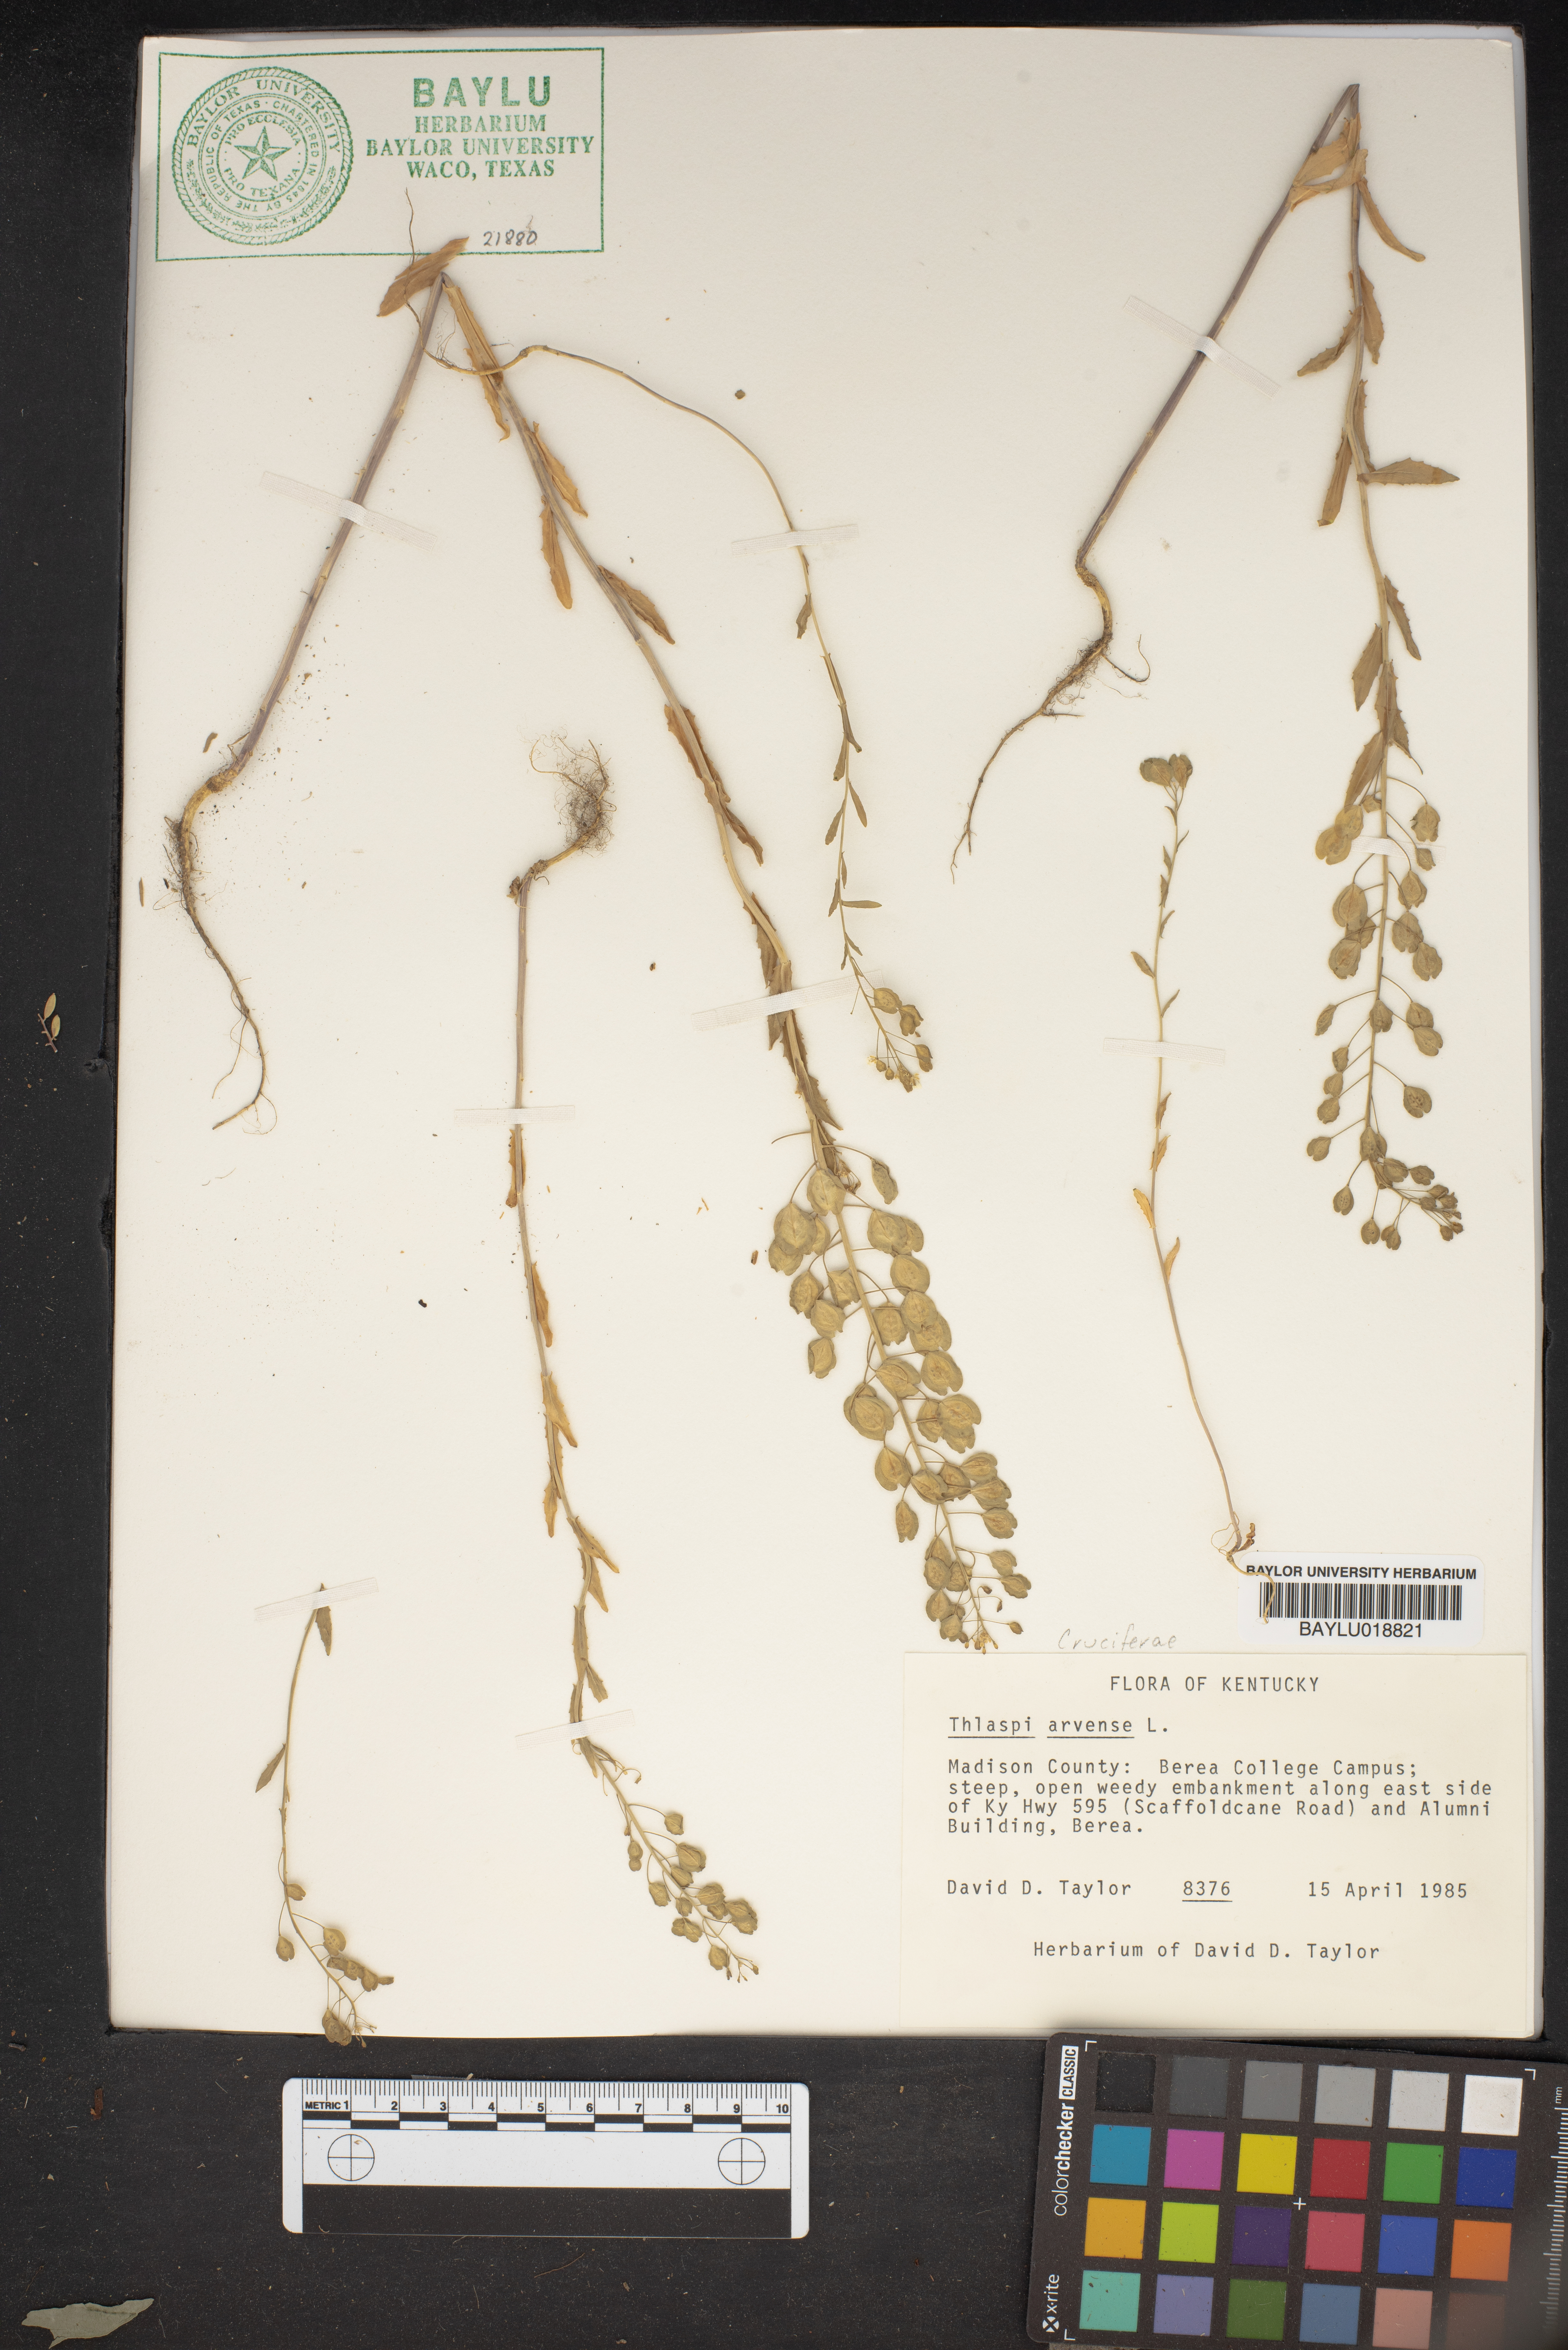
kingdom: Plantae
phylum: Tracheophyta
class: Magnoliopsida
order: Brassicales
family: Brassicaceae
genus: Thlaspi
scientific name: Thlaspi arvense
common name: Field pennycress
